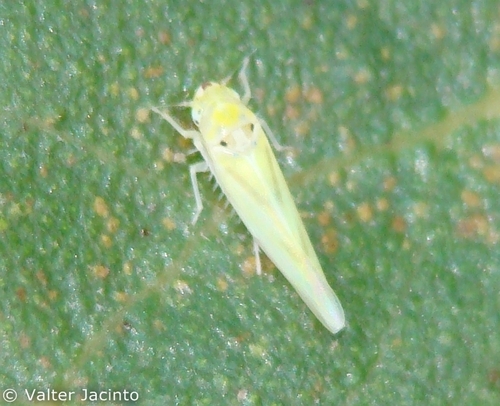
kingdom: Animalia
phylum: Arthropoda
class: Insecta
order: Hemiptera
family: Cicadellidae
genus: Zygina
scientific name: Zygina nivea
